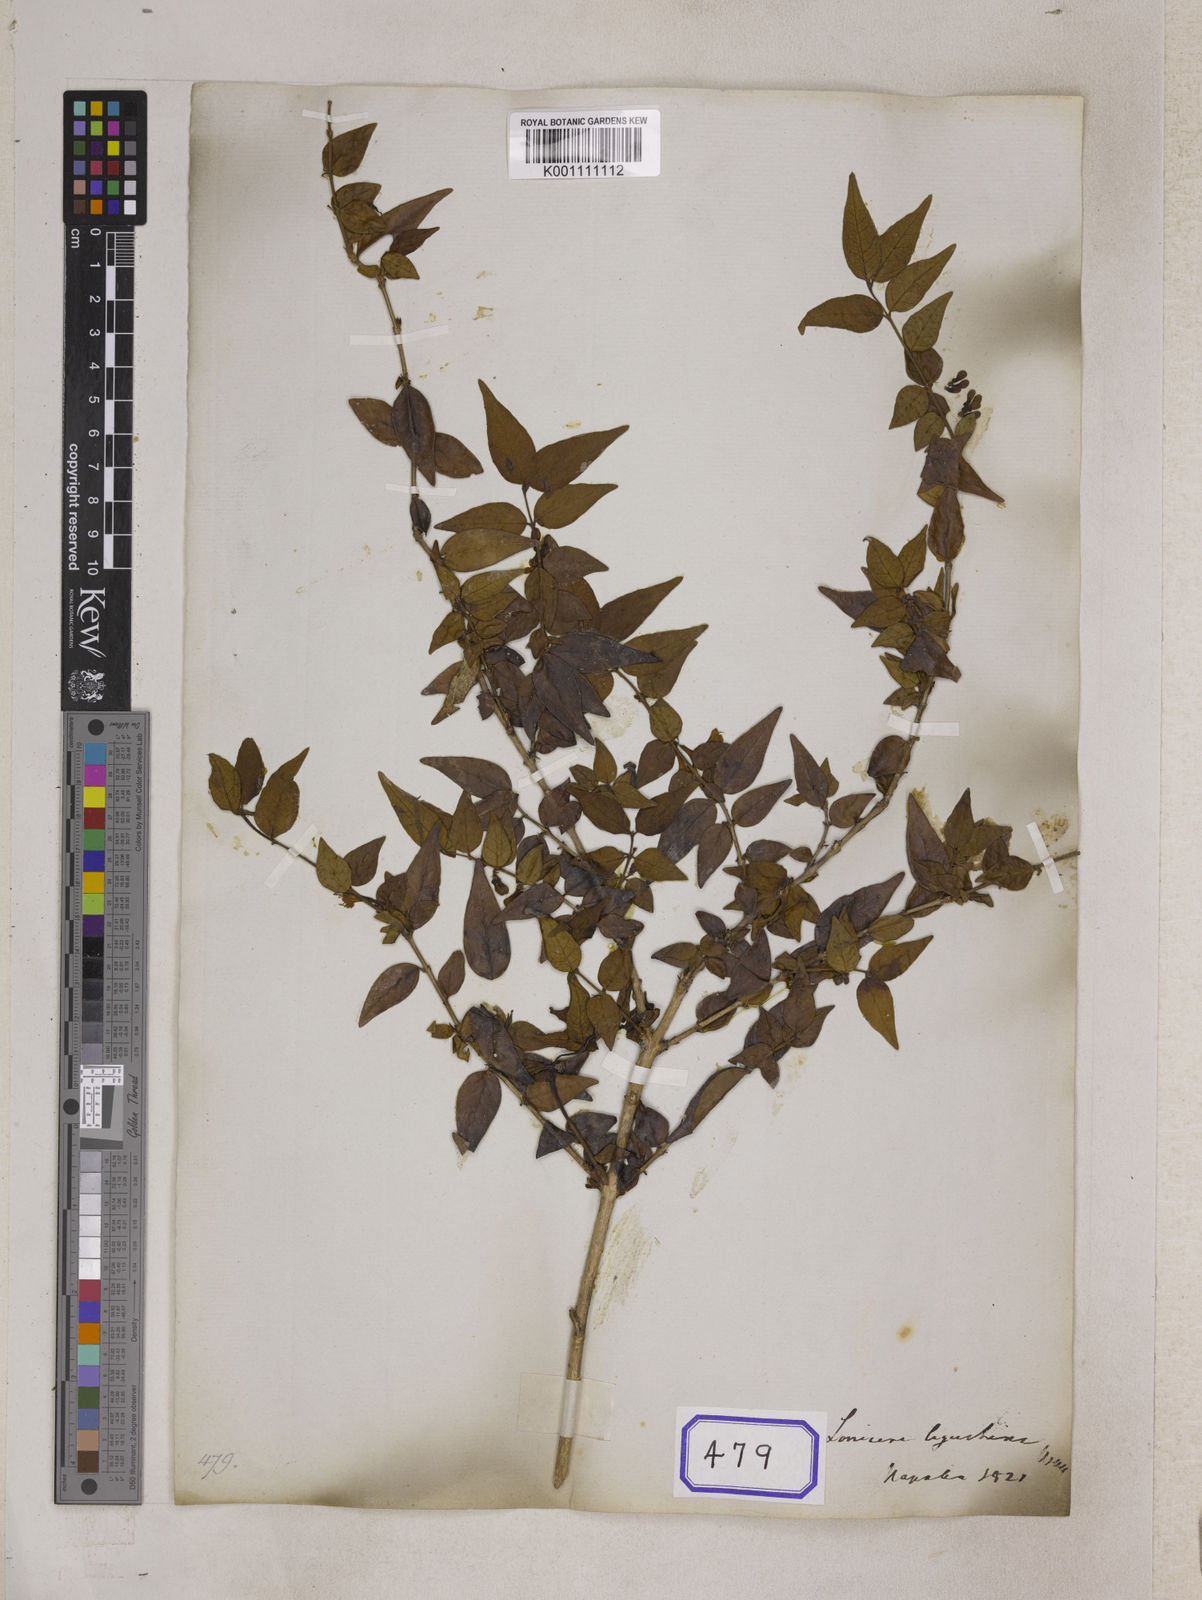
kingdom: Plantae
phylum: Tracheophyta
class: Magnoliopsida
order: Dipsacales
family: Caprifoliaceae
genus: Lonicera
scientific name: Lonicera ligustrina
